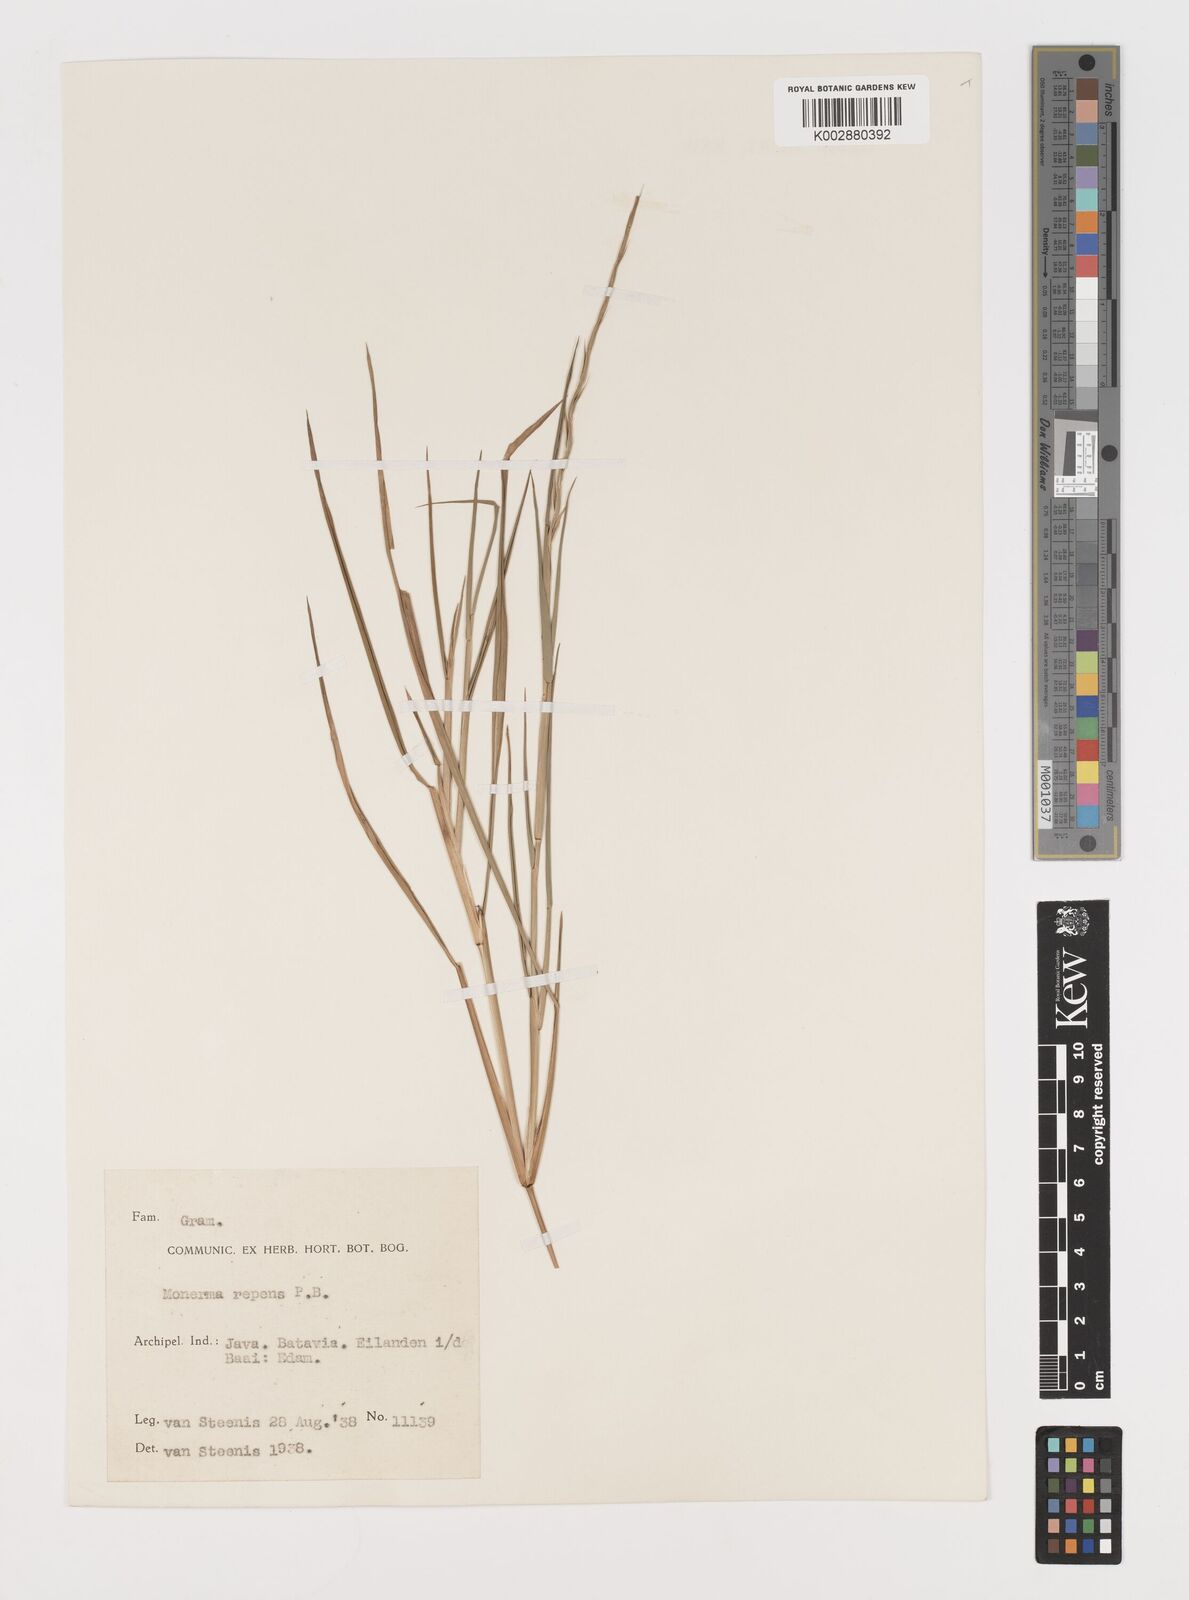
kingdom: Plantae
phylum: Tracheophyta
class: Liliopsida
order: Poales
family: Poaceae
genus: Lepturus
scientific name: Lepturus repens
